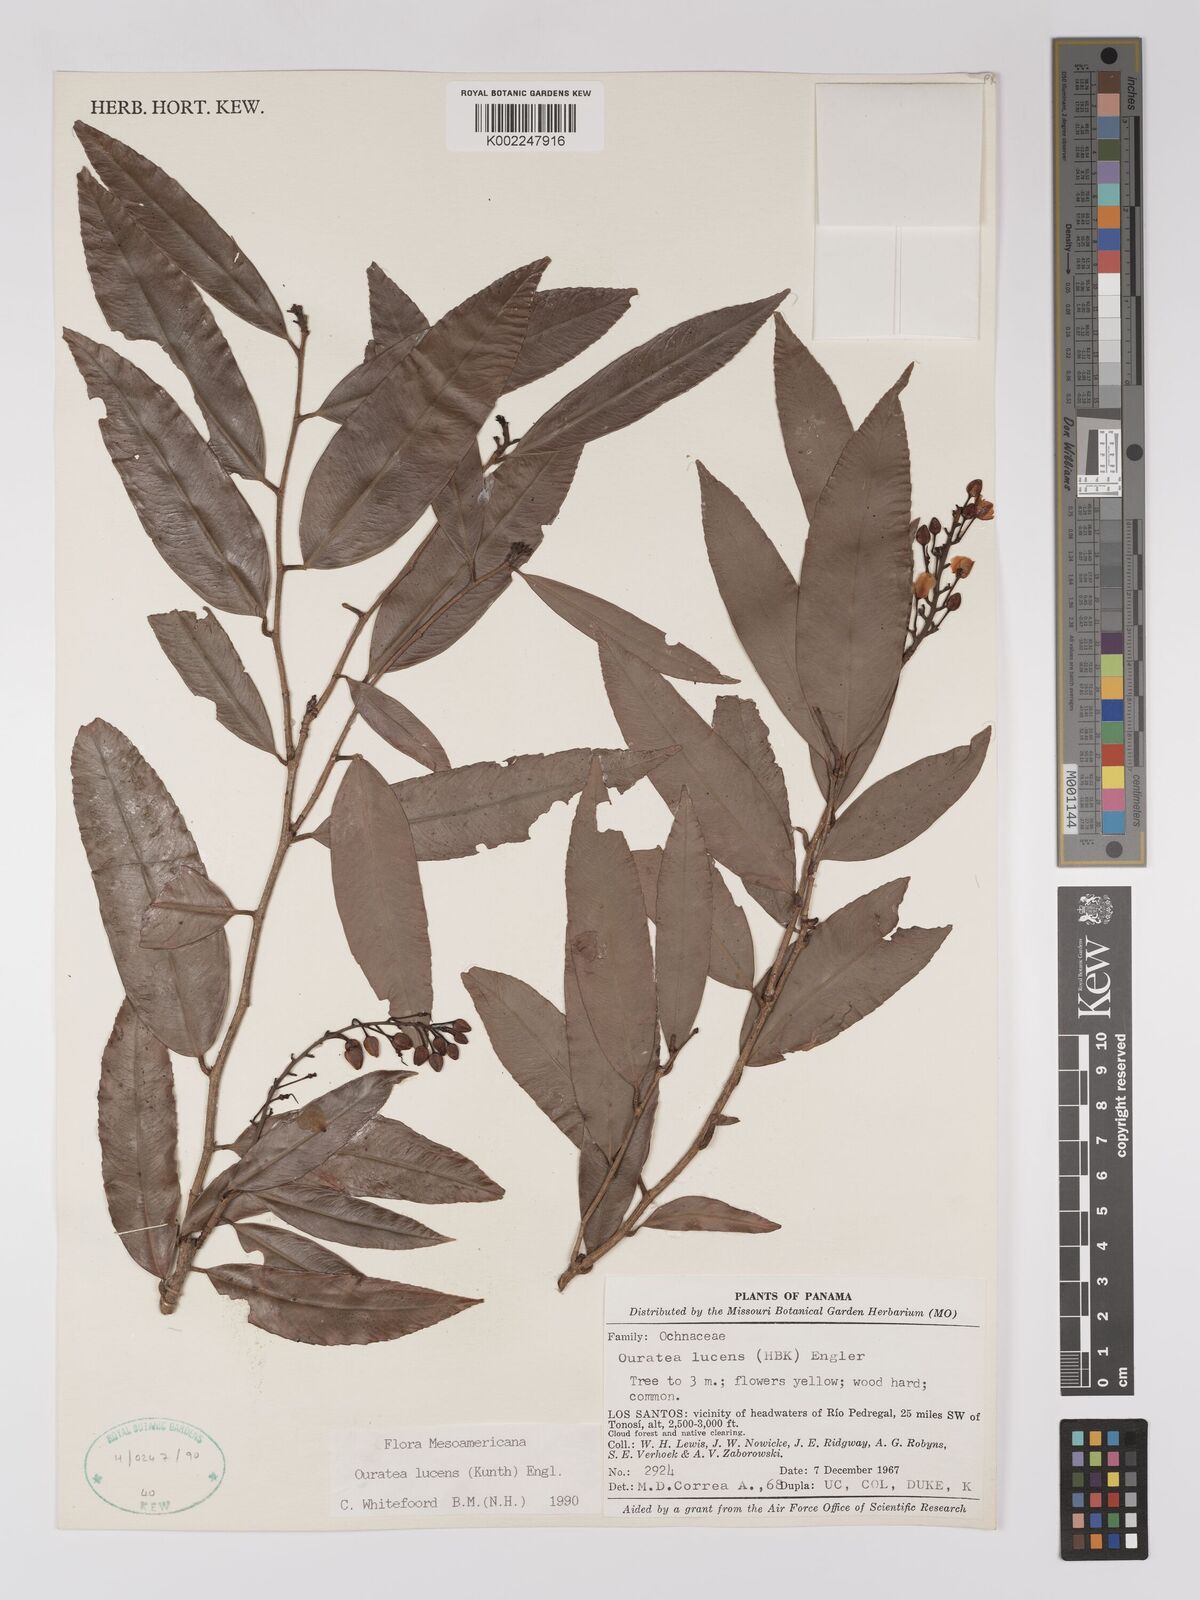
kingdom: Plantae
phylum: Tracheophyta
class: Magnoliopsida
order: Malpighiales
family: Ochnaceae
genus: Ouratea
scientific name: Ouratea lucens
